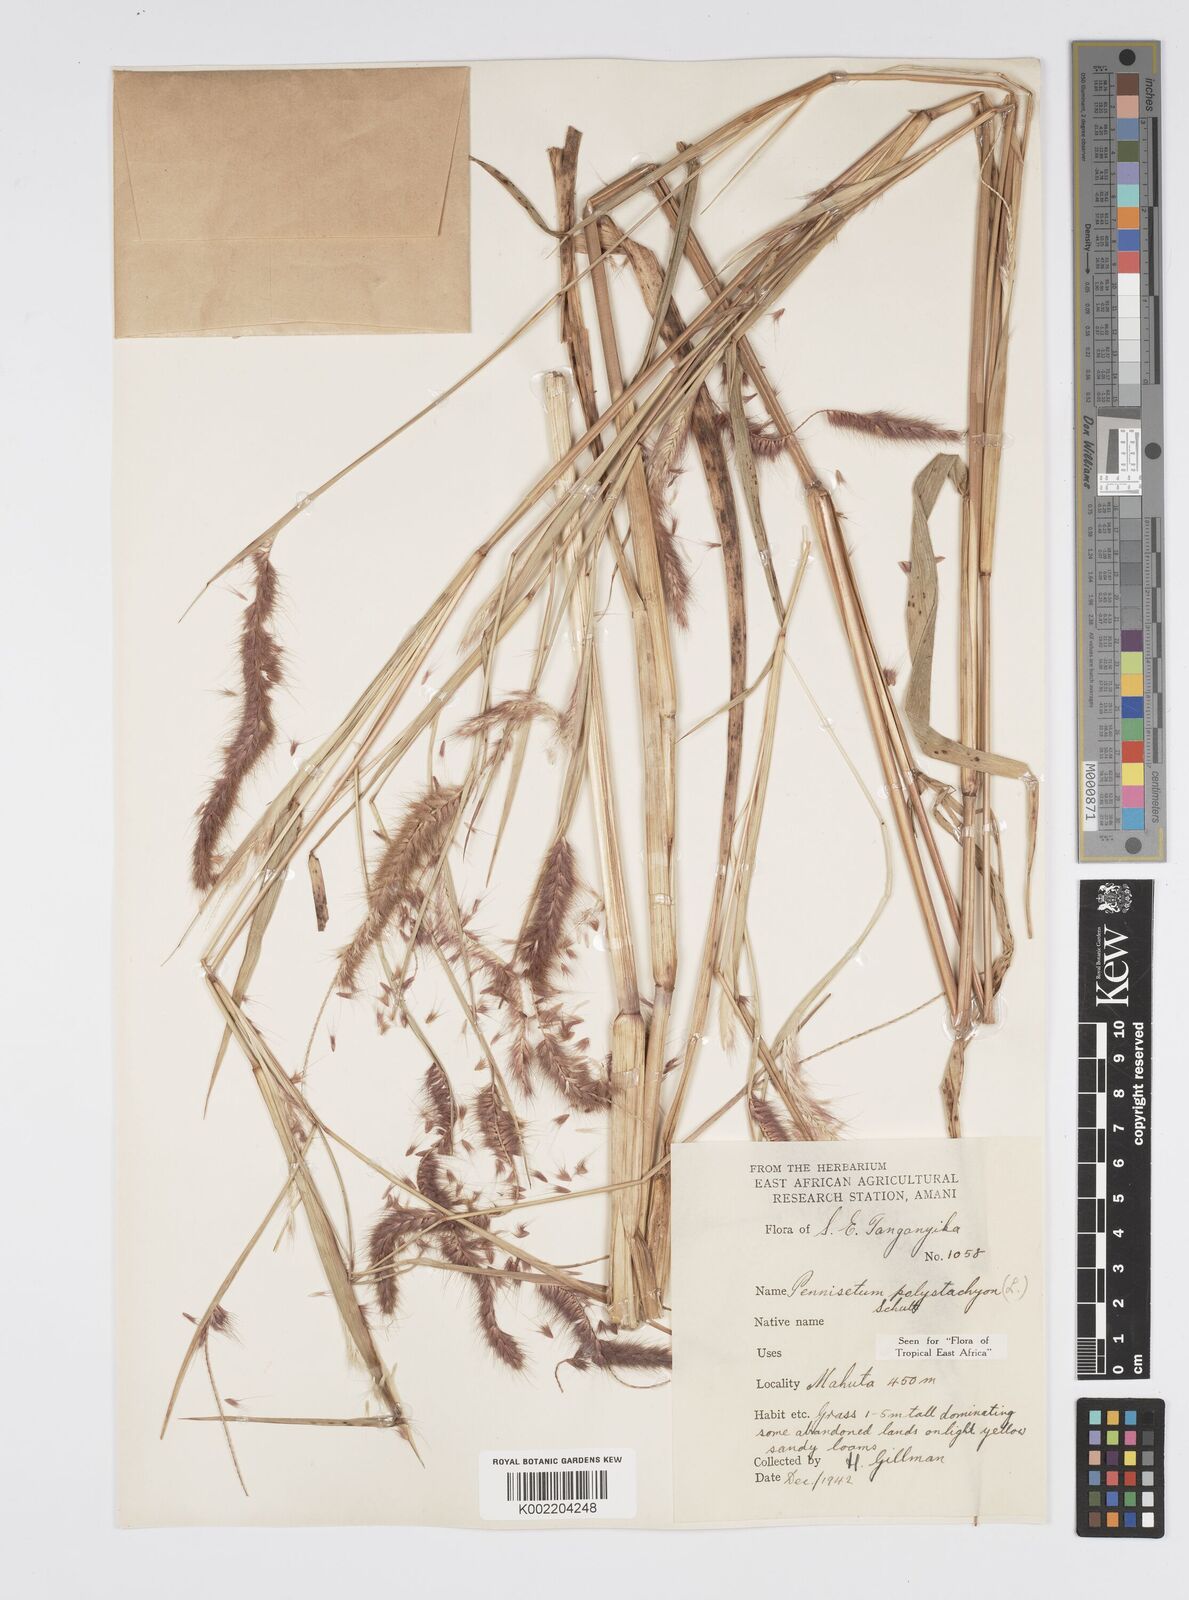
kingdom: Plantae
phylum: Tracheophyta
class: Liliopsida
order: Poales
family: Poaceae
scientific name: Poaceae
